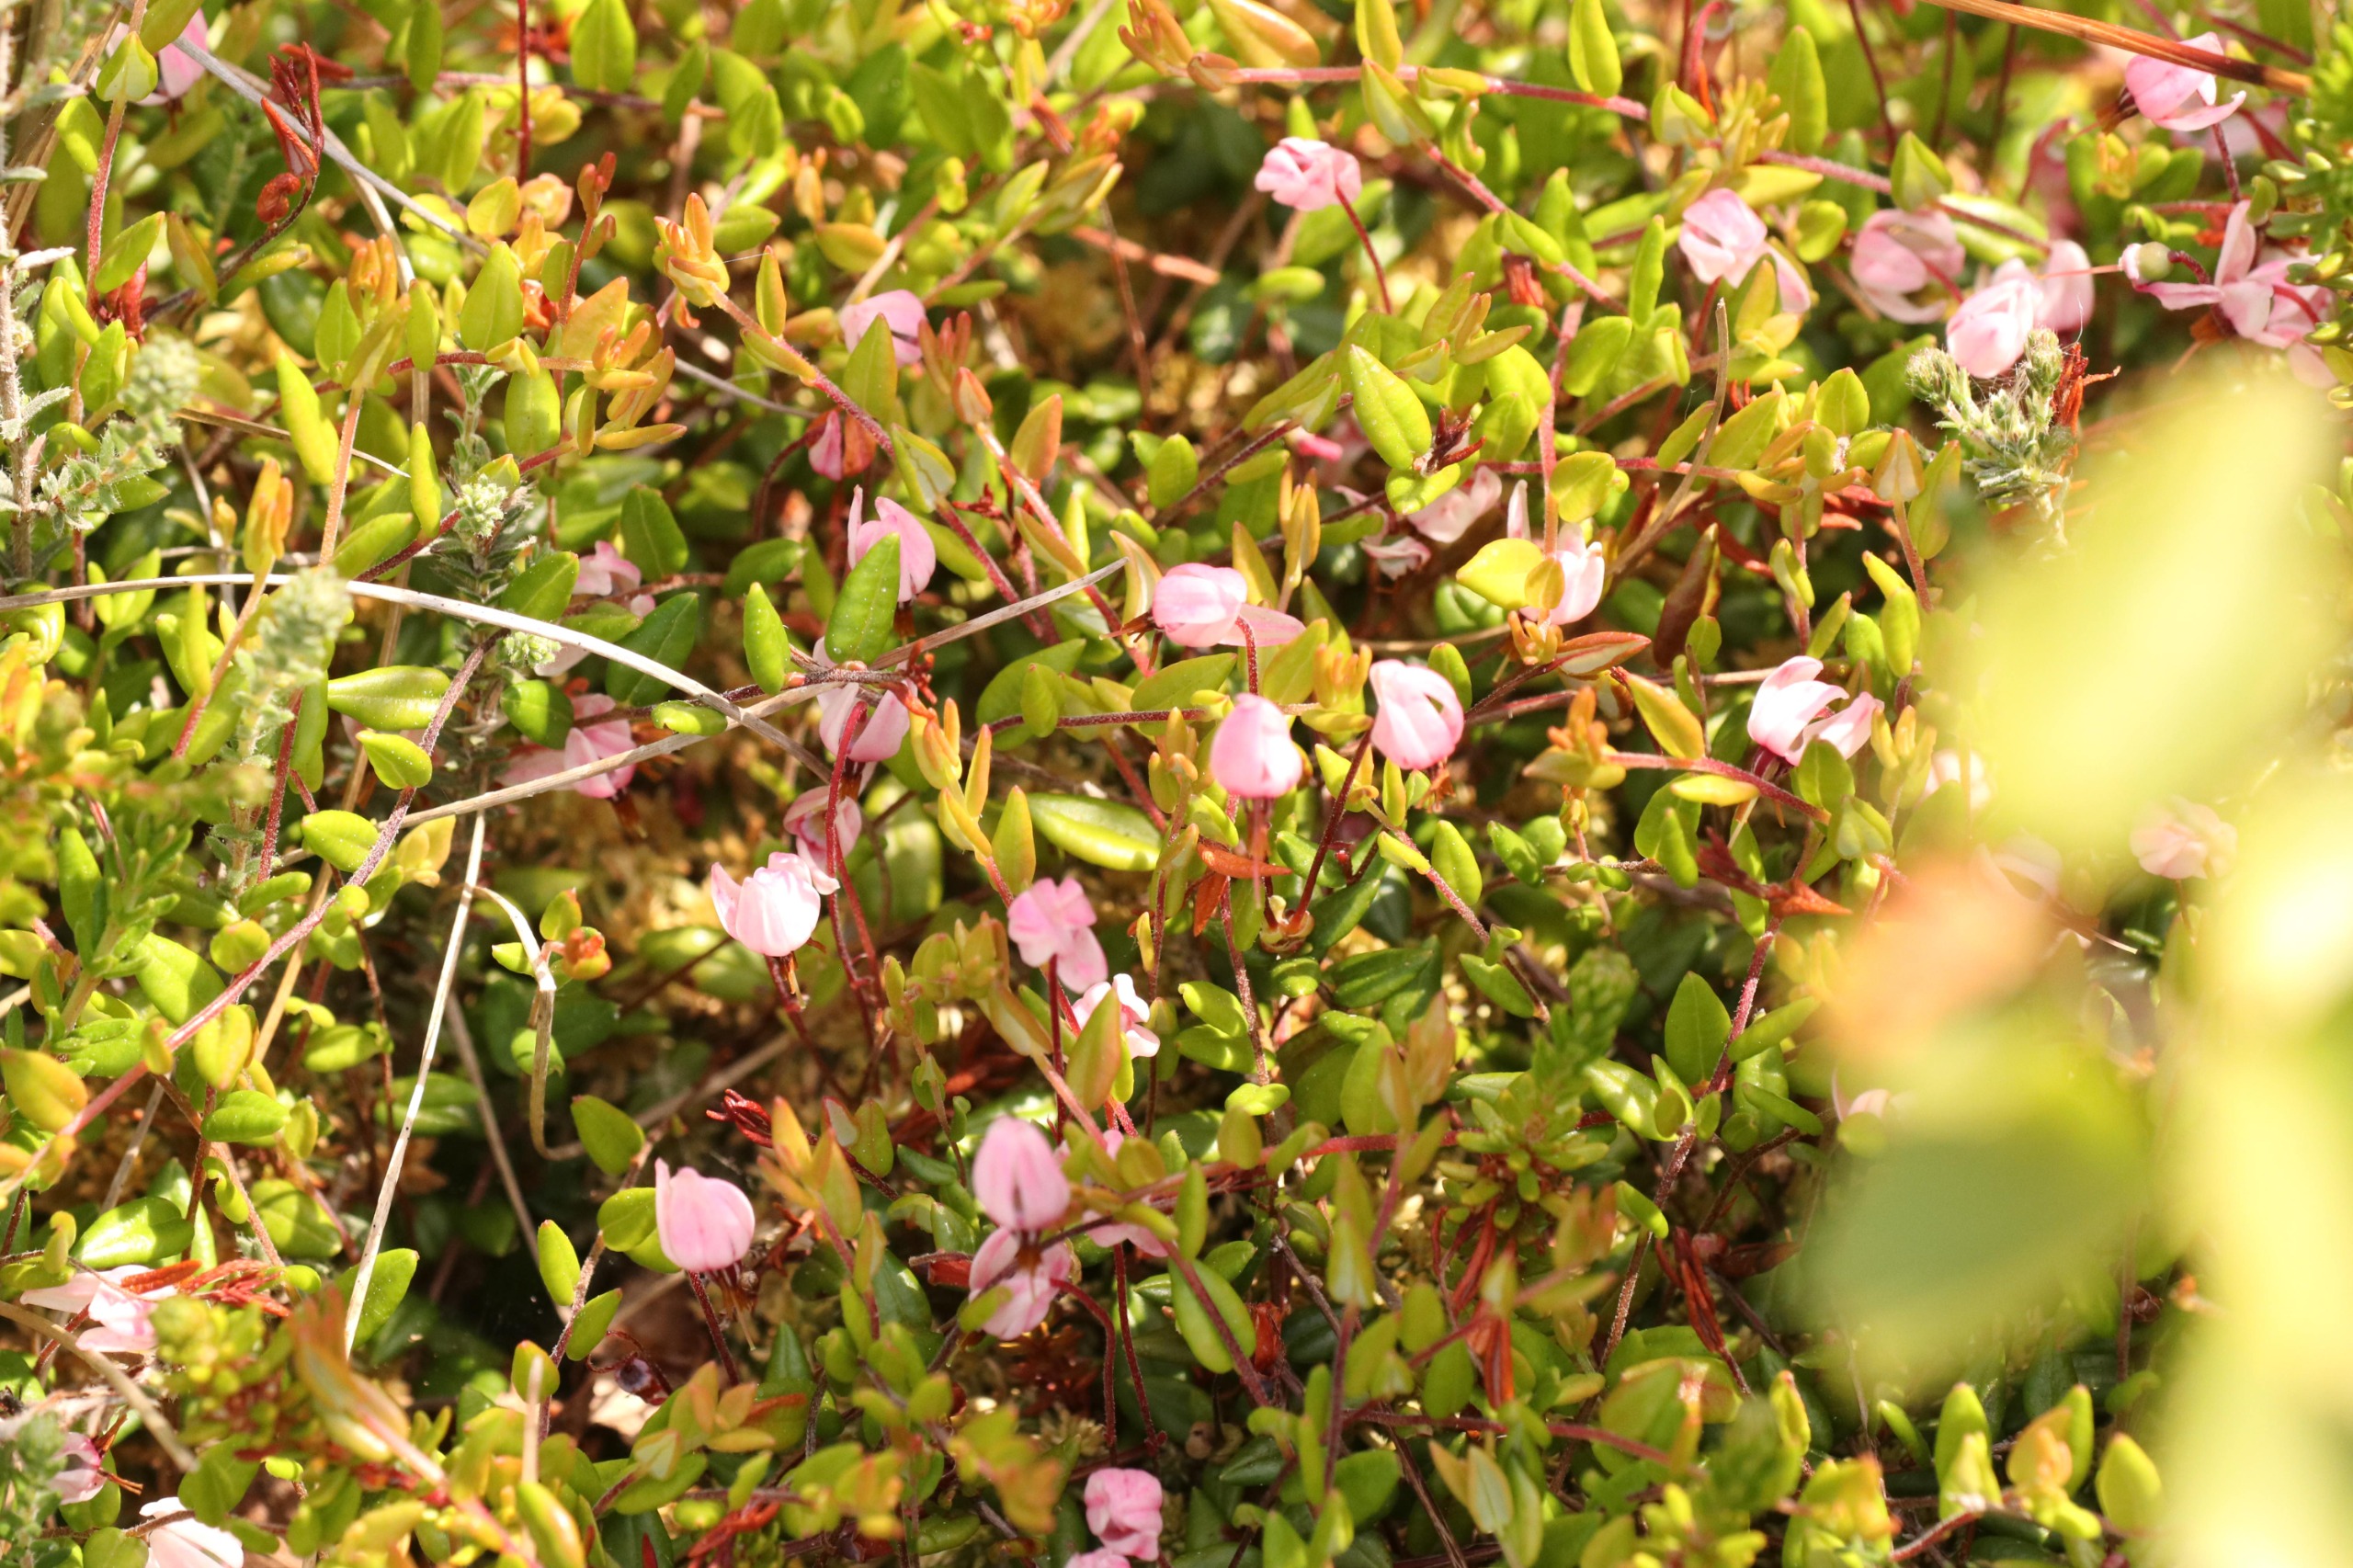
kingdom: Plantae
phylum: Tracheophyta
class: Magnoliopsida
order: Ericales
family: Ericaceae
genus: Vaccinium
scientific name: Vaccinium oxycoccos
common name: Tranebær
